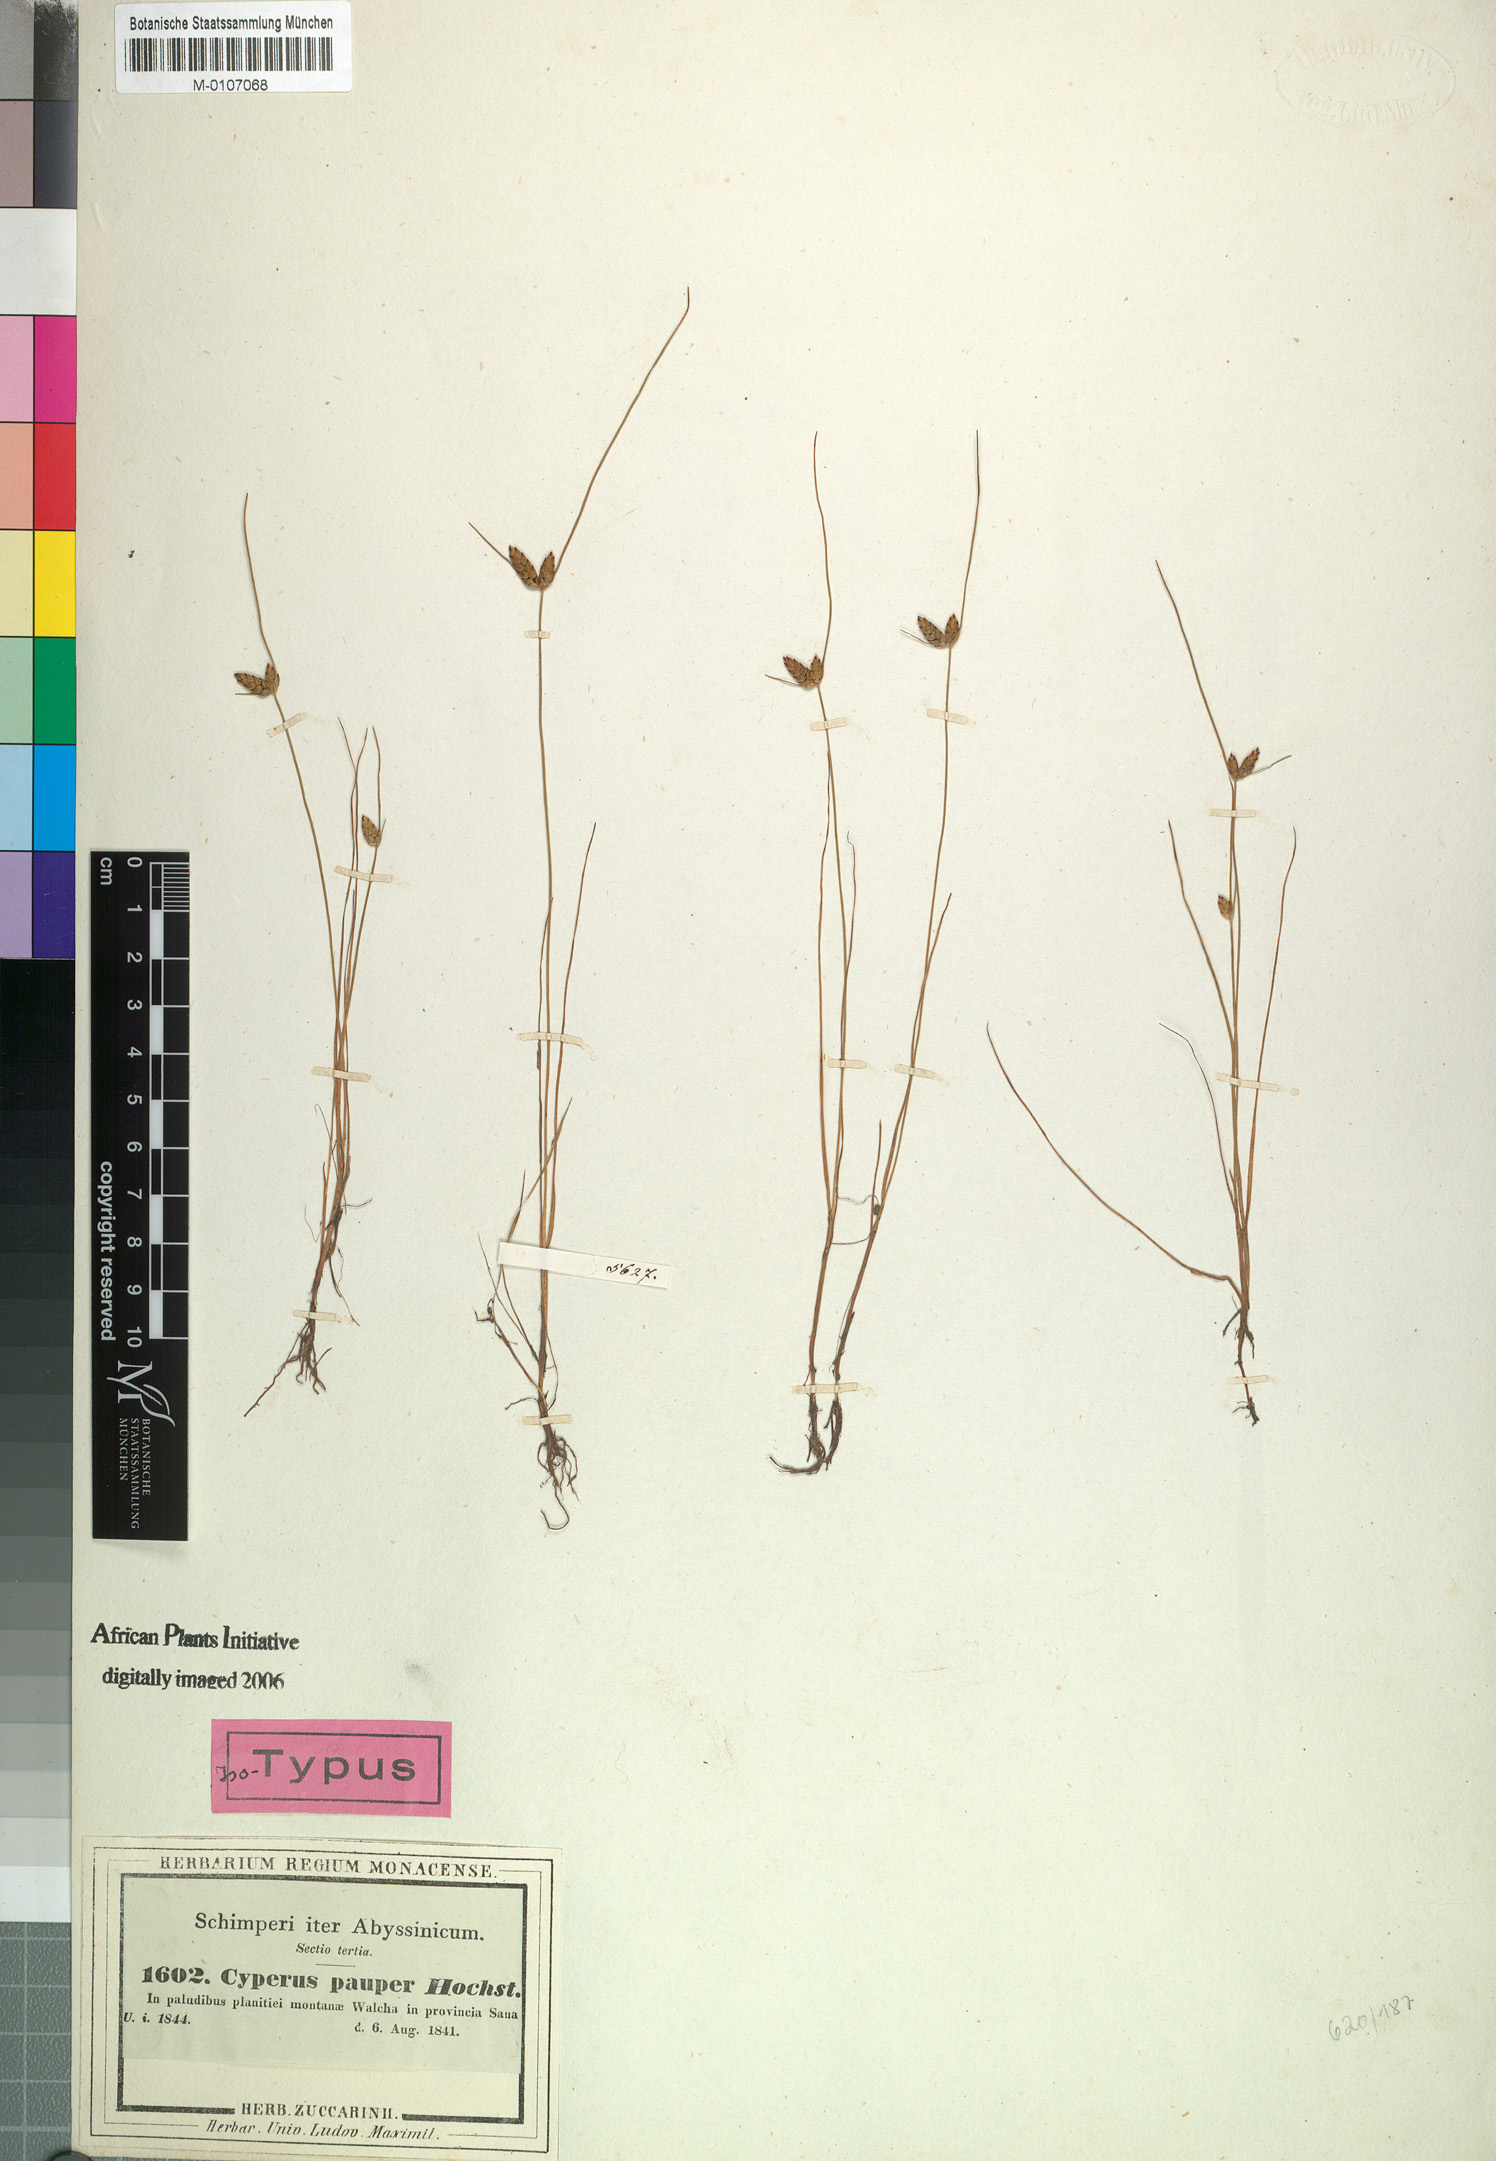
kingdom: Plantae
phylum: Tracheophyta
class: Liliopsida
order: Poales
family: Cyperaceae
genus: Cyperus
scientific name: Cyperus pauper
